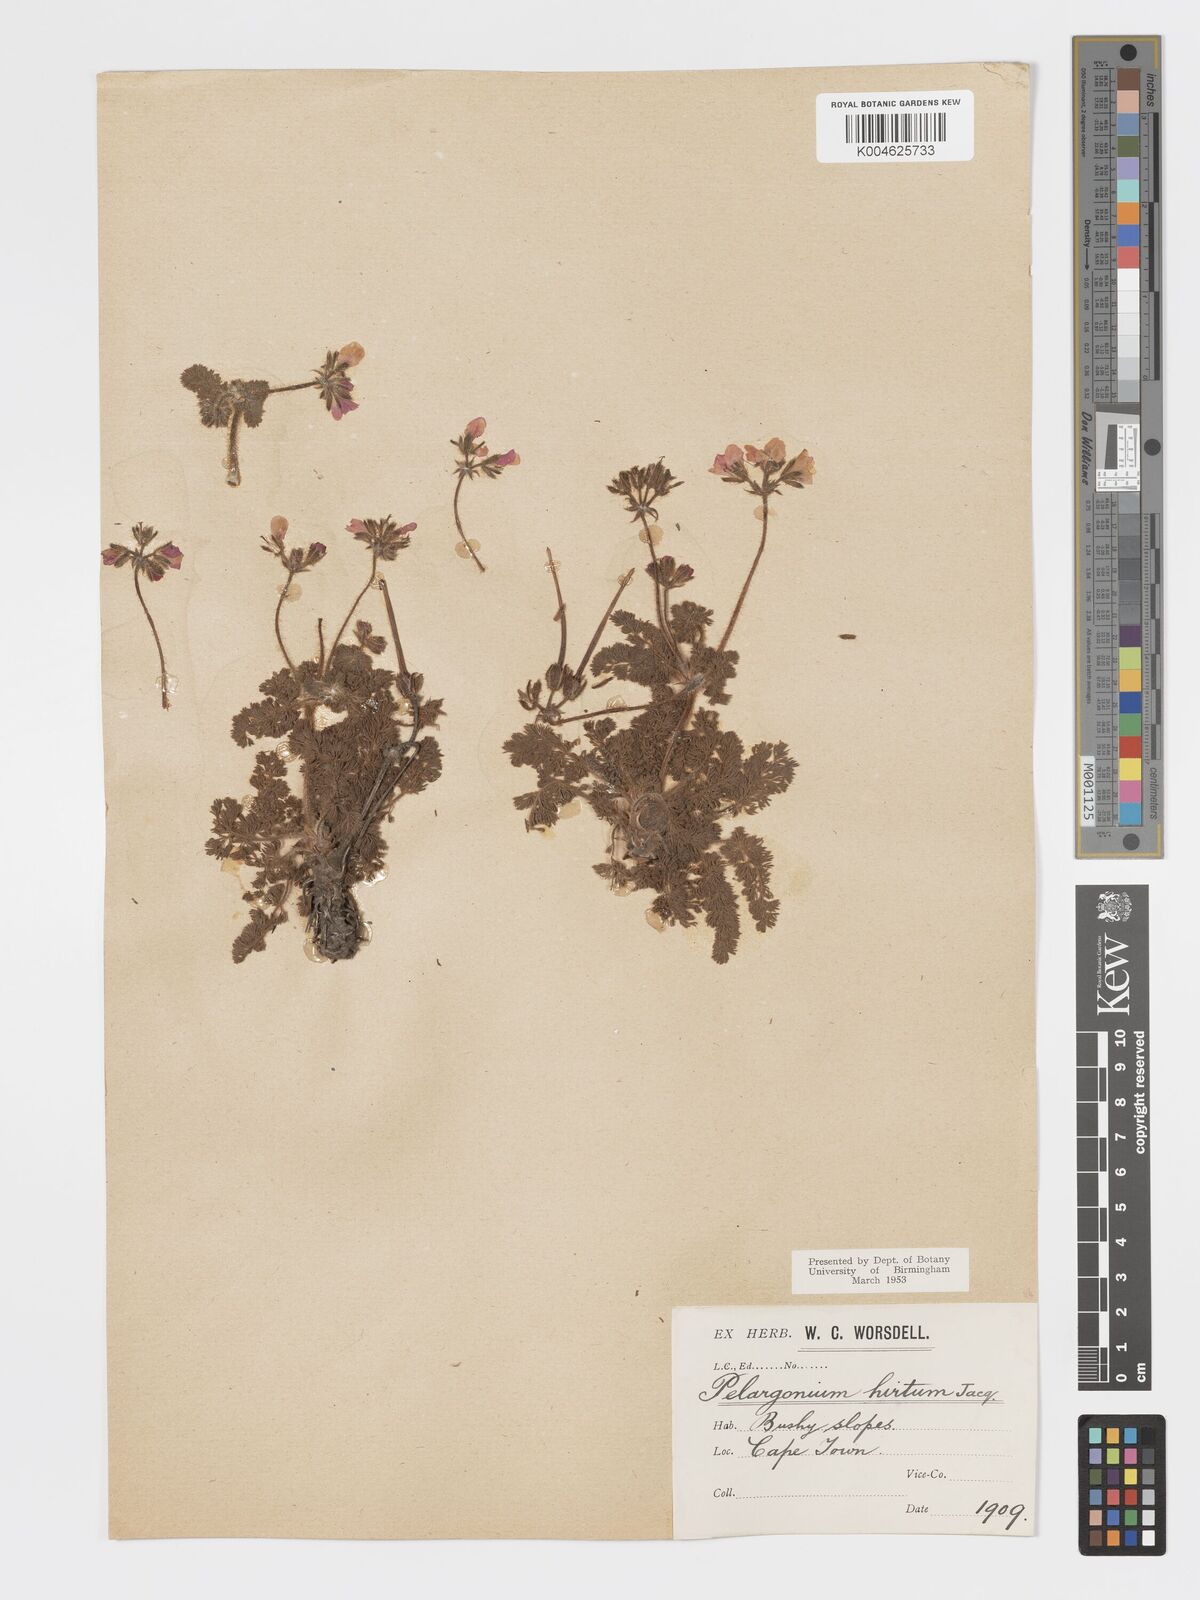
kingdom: Plantae
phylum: Tracheophyta
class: Magnoliopsida
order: Geraniales
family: Geraniaceae
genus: Pelargonium
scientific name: Pelargonium
